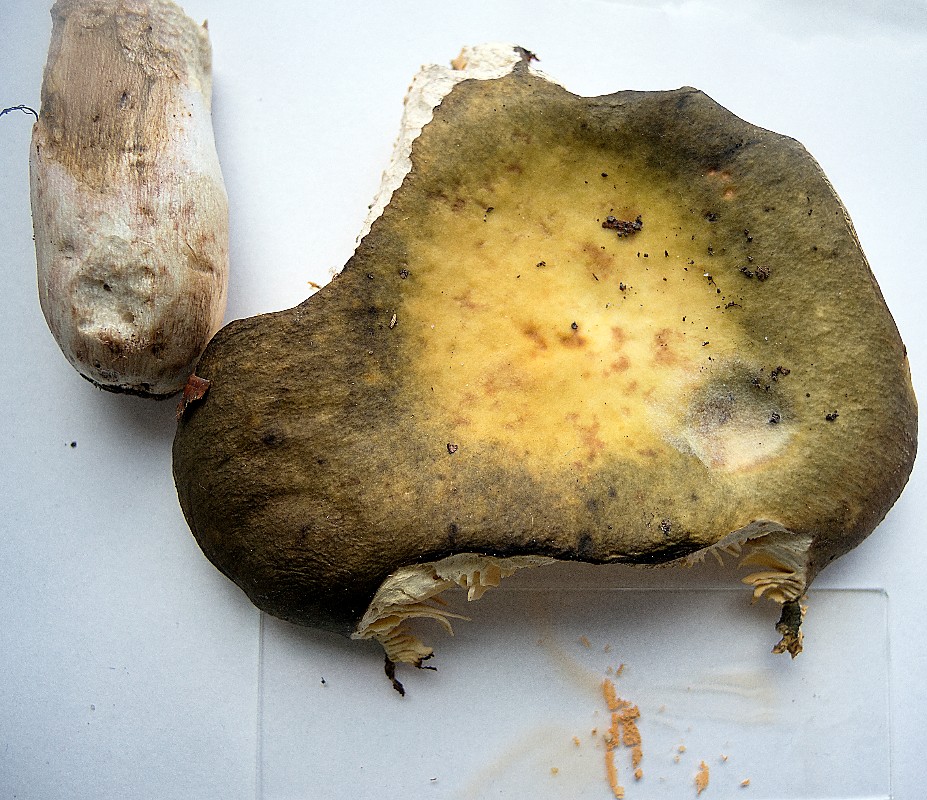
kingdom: Fungi
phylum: Basidiomycota
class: Agaricomycetes
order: Russulales
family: Russulaceae
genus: Russula
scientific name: Russula romellii
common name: romells skørhat
